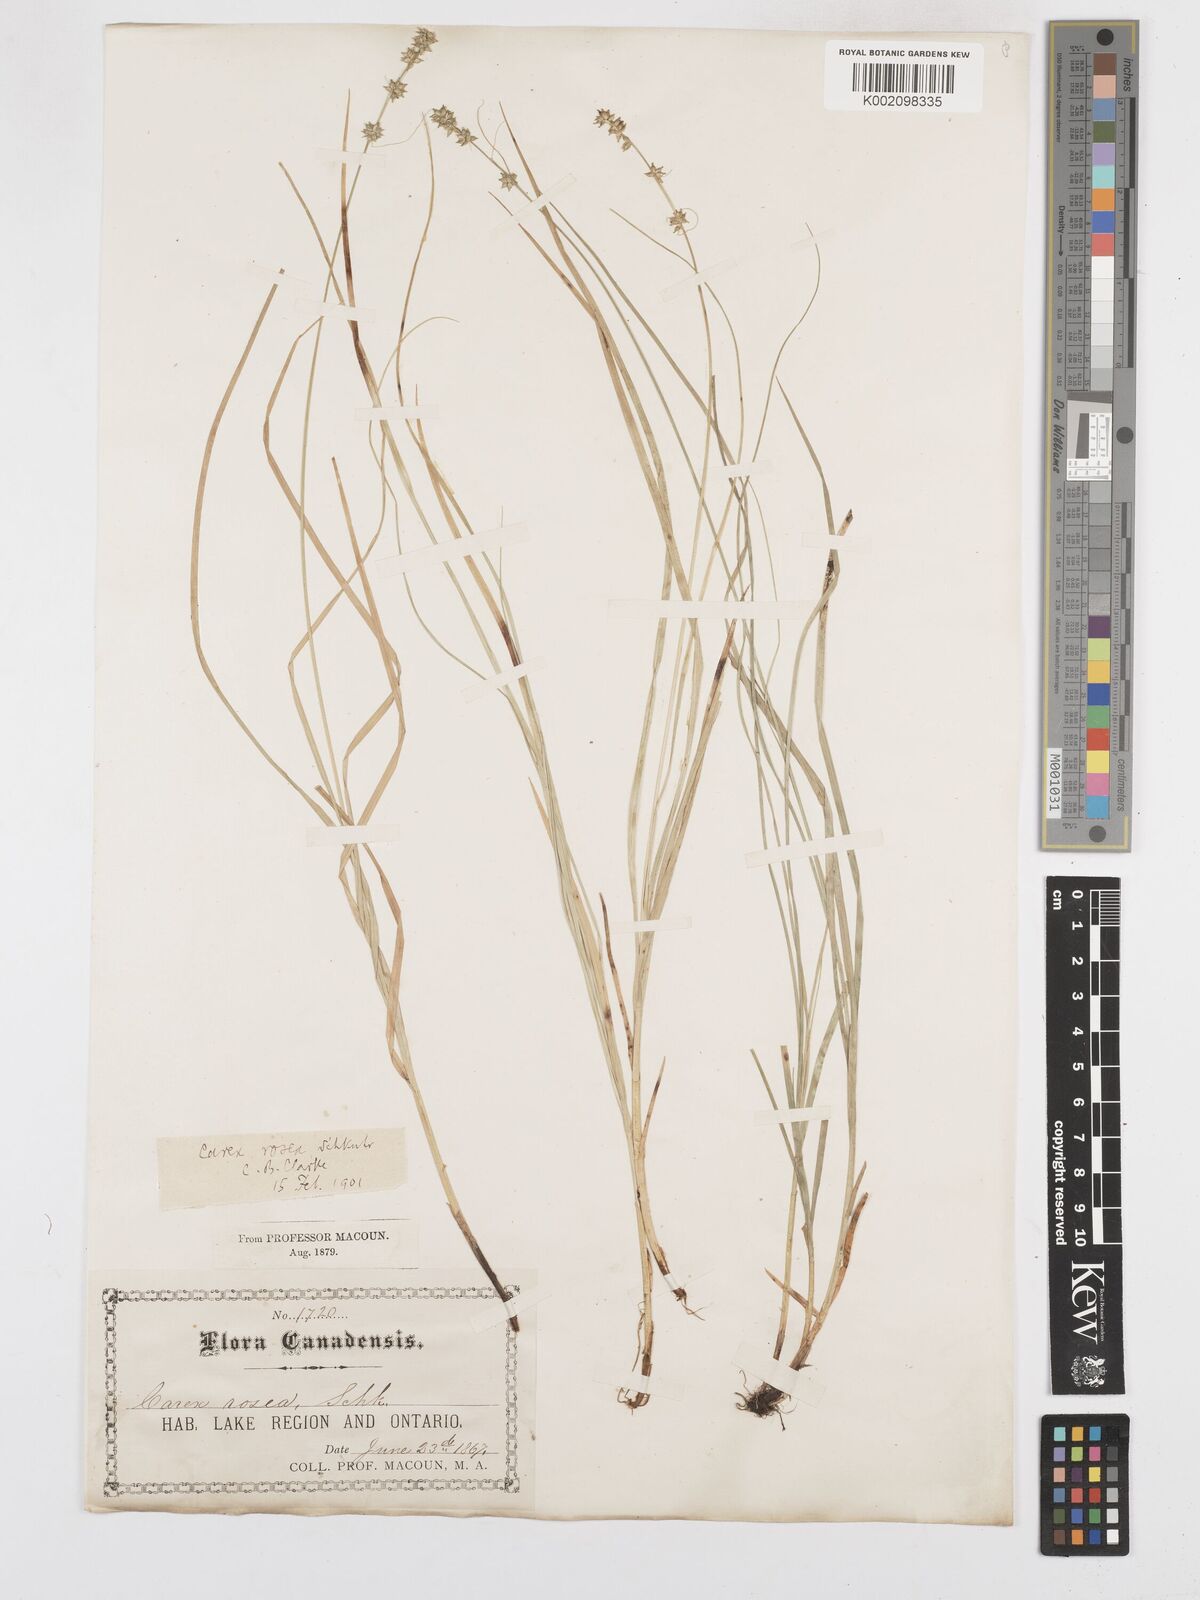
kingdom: Plantae
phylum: Tracheophyta
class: Liliopsida
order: Poales
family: Cyperaceae
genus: Carex
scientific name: Carex rosea
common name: Curly-styled wood sedge
